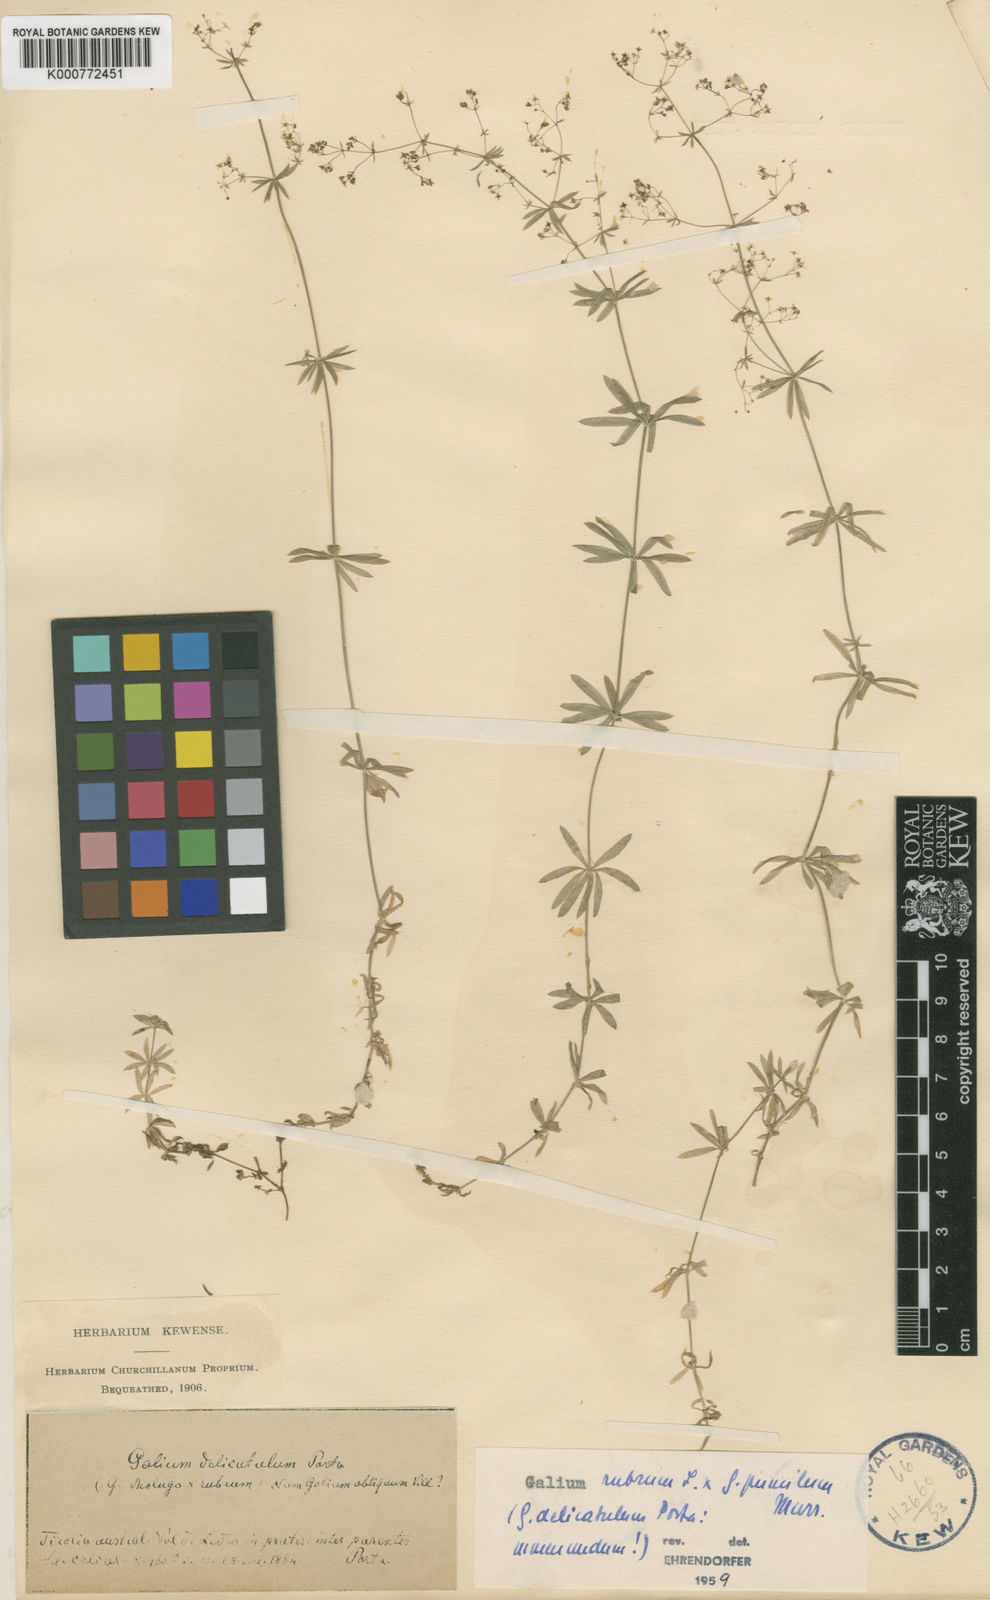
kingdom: Plantae
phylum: Tracheophyta
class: Magnoliopsida
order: Gentianales
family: Rubiaceae
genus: Galium
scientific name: Galium centroniae
